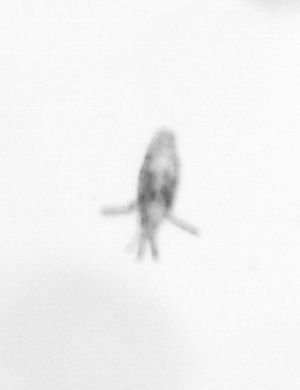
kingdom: Animalia
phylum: Arthropoda
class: Copepoda
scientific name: Copepoda
